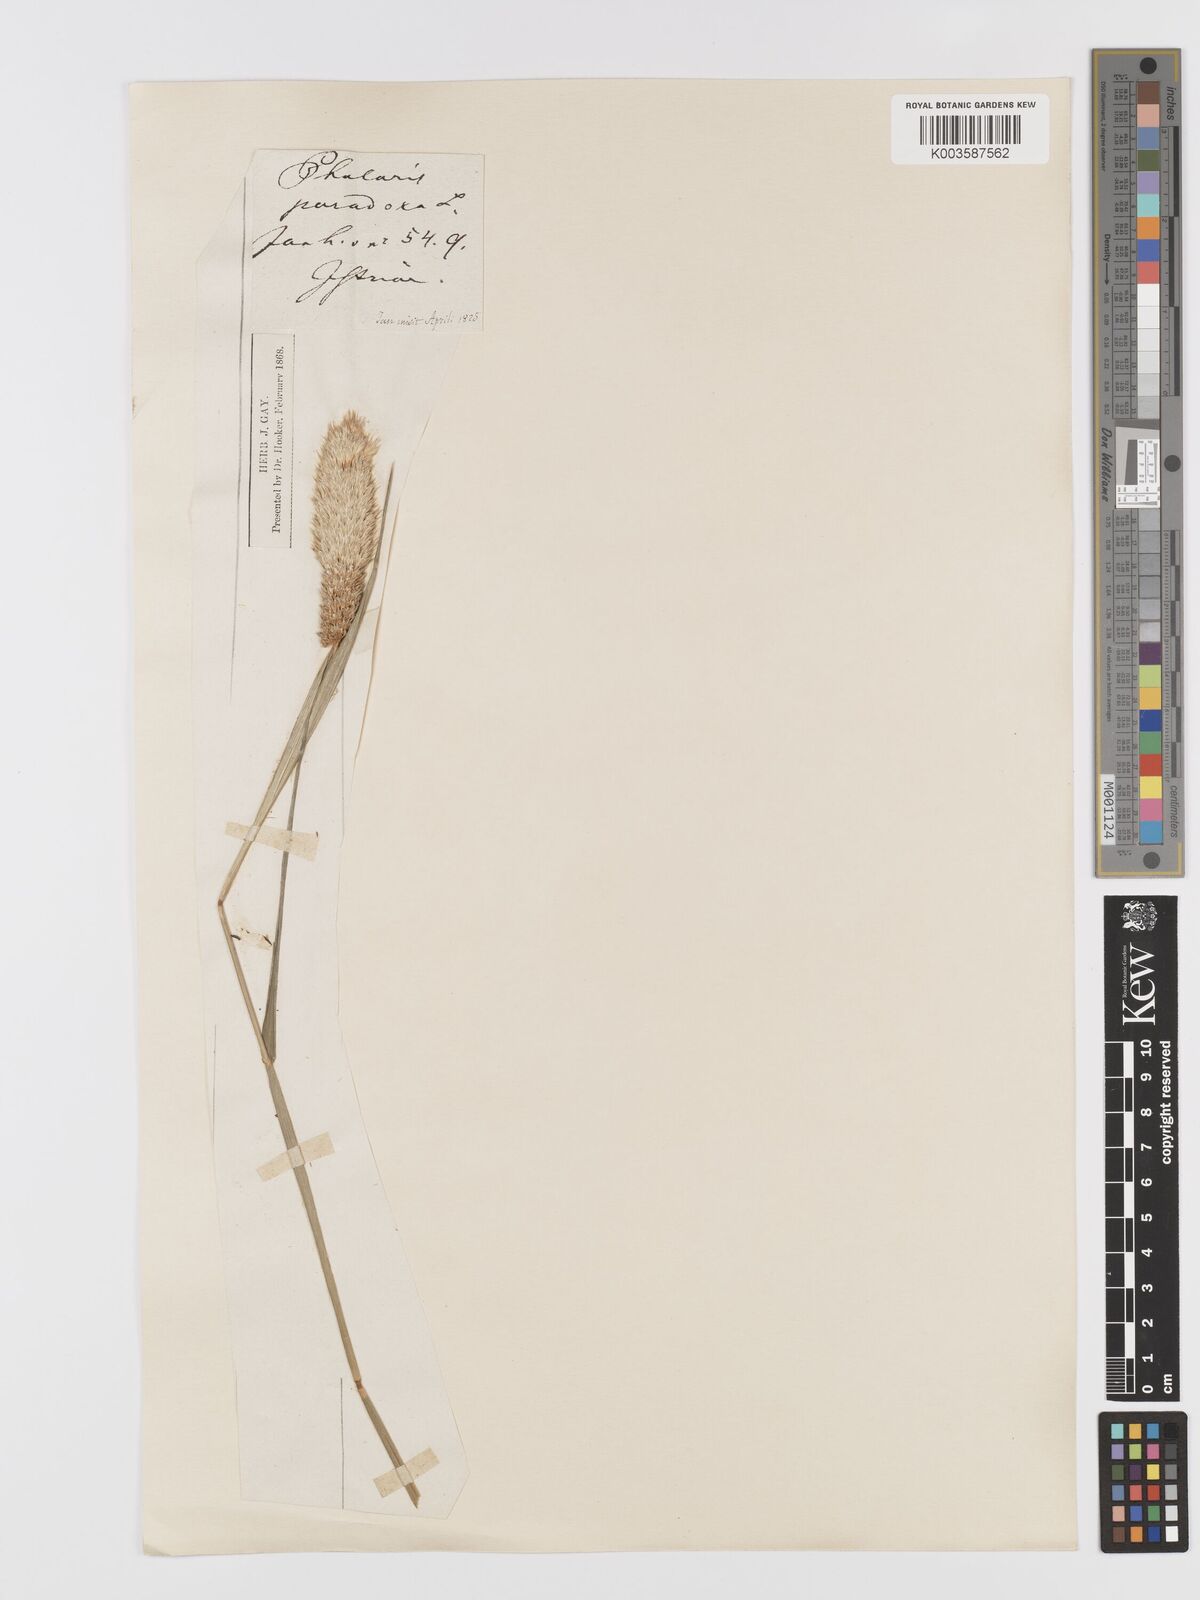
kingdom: Plantae
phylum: Tracheophyta
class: Liliopsida
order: Poales
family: Poaceae
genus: Phalaris
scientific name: Phalaris paradoxa
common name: Awned canary-grass
